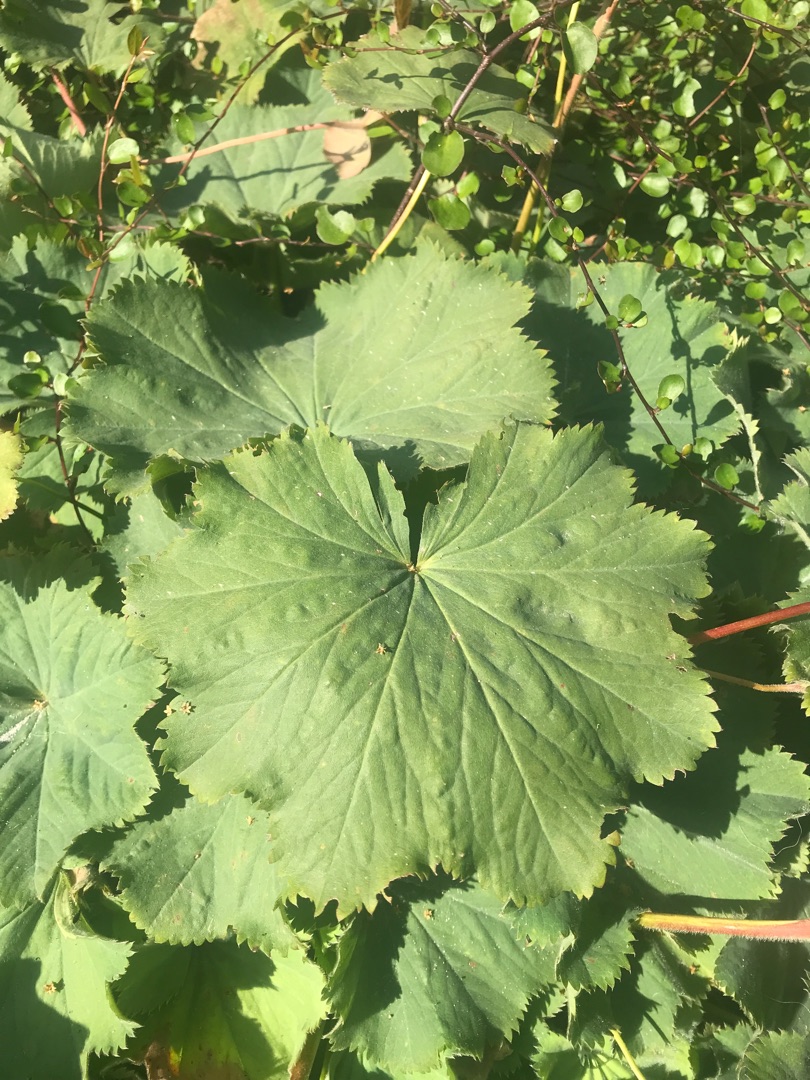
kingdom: Plantae
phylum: Tracheophyta
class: Magnoliopsida
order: Rosales
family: Rosaceae
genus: Alchemilla
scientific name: Alchemilla mollis
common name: Lådden løvefod
